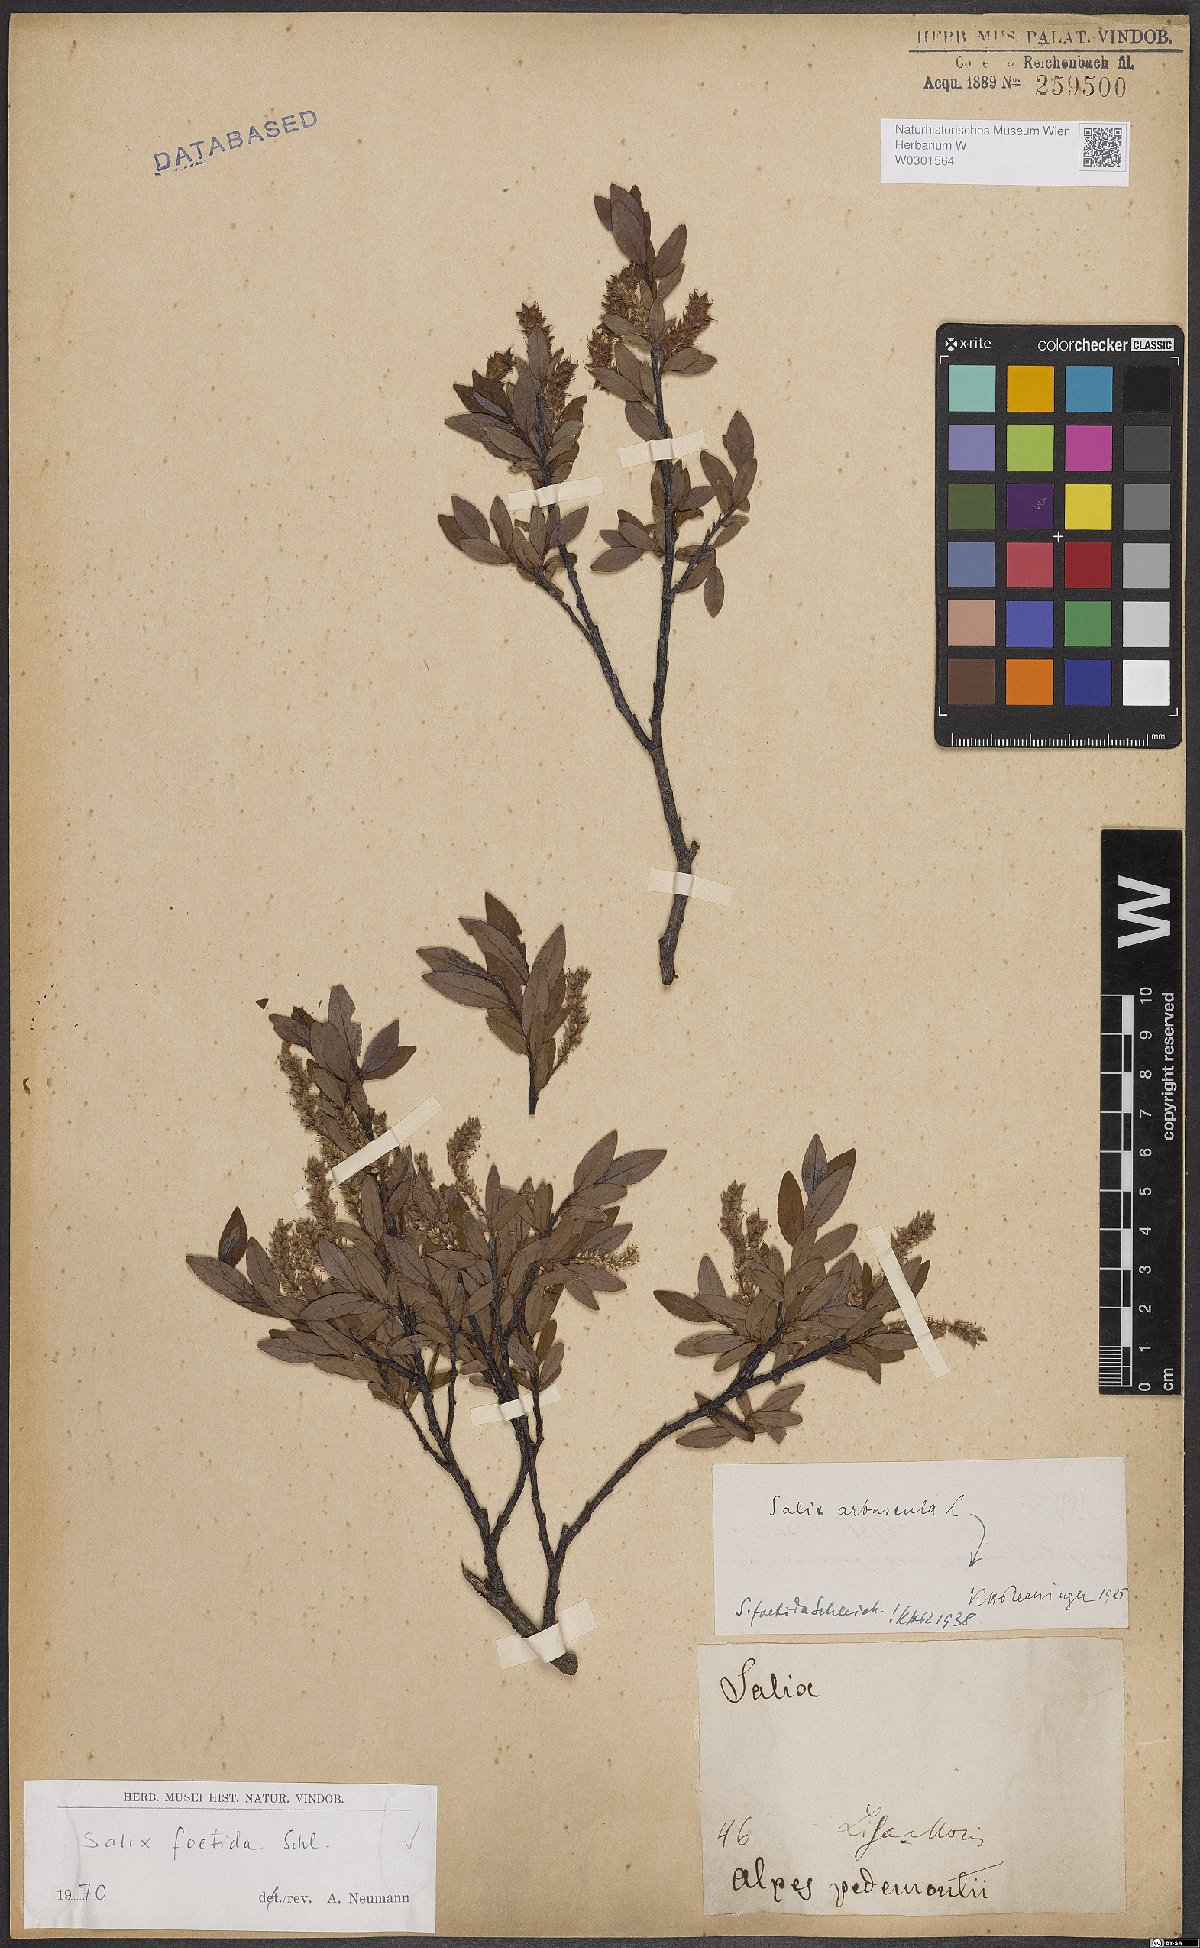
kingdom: Plantae
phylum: Tracheophyta
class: Magnoliopsida
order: Malpighiales
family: Salicaceae
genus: Salix
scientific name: Salix foetida
